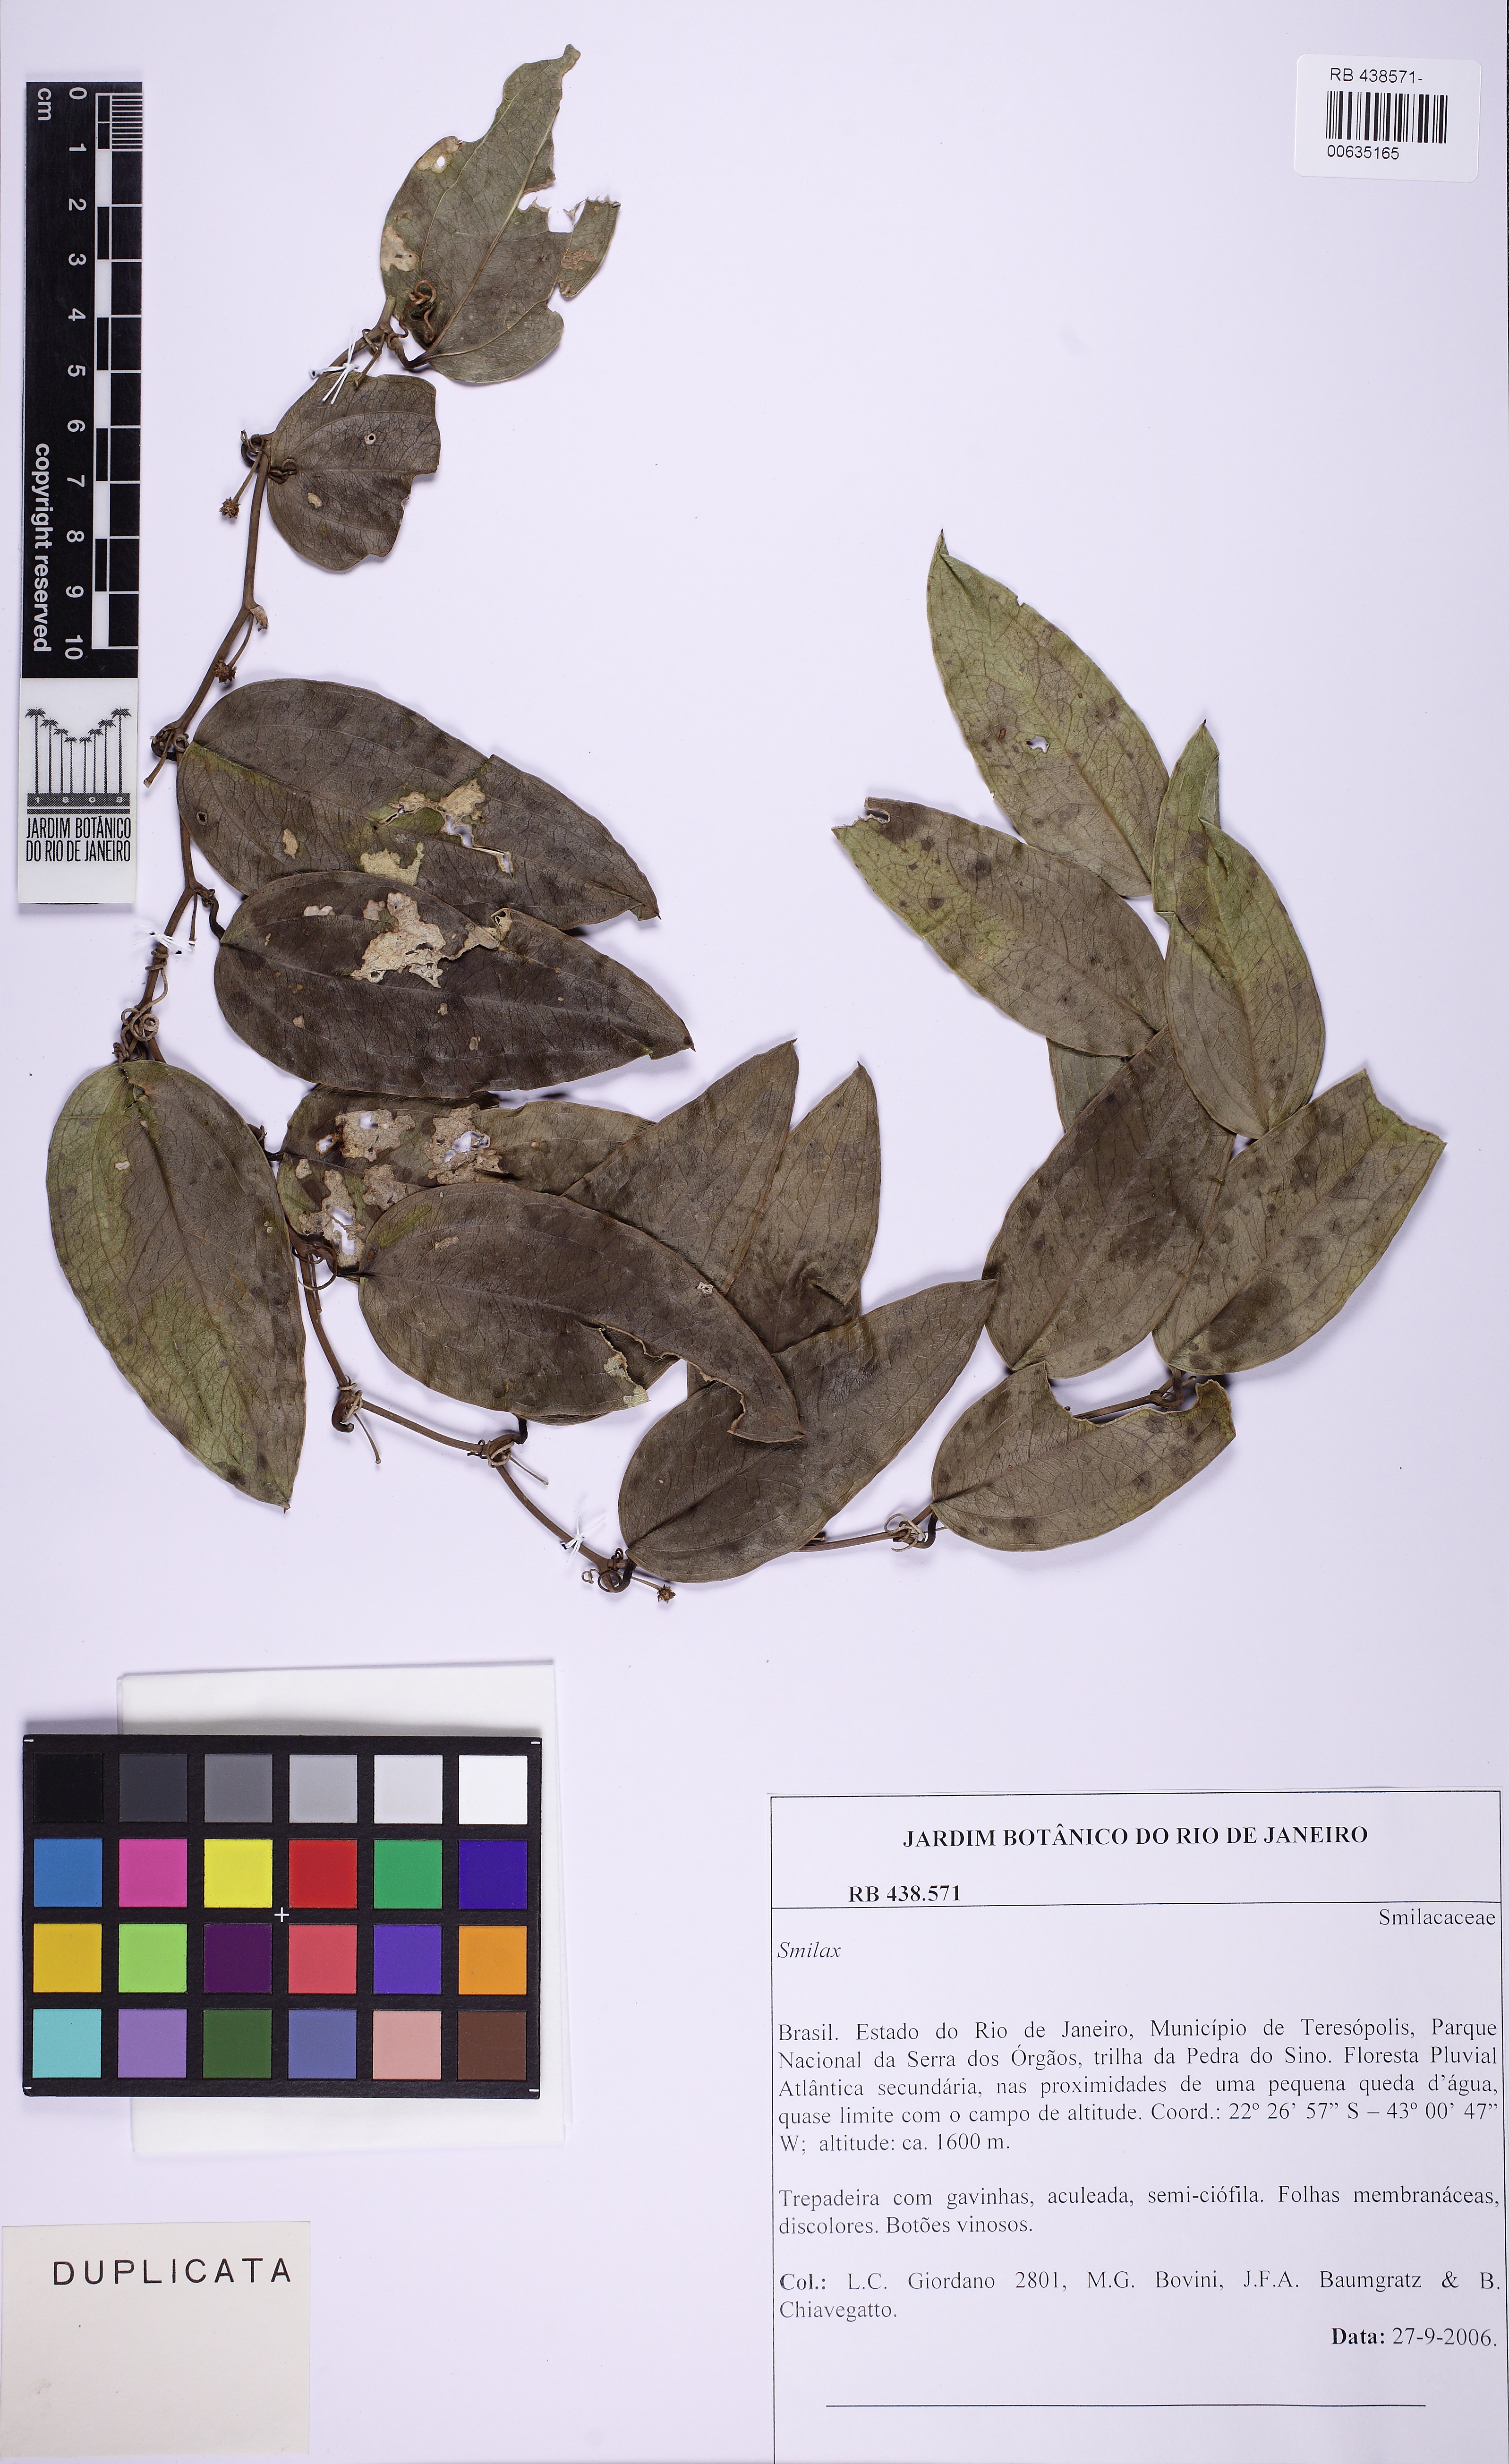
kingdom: Plantae
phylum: Tracheophyta
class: Liliopsida
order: Liliales
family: Smilacaceae
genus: Smilax
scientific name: Smilax
